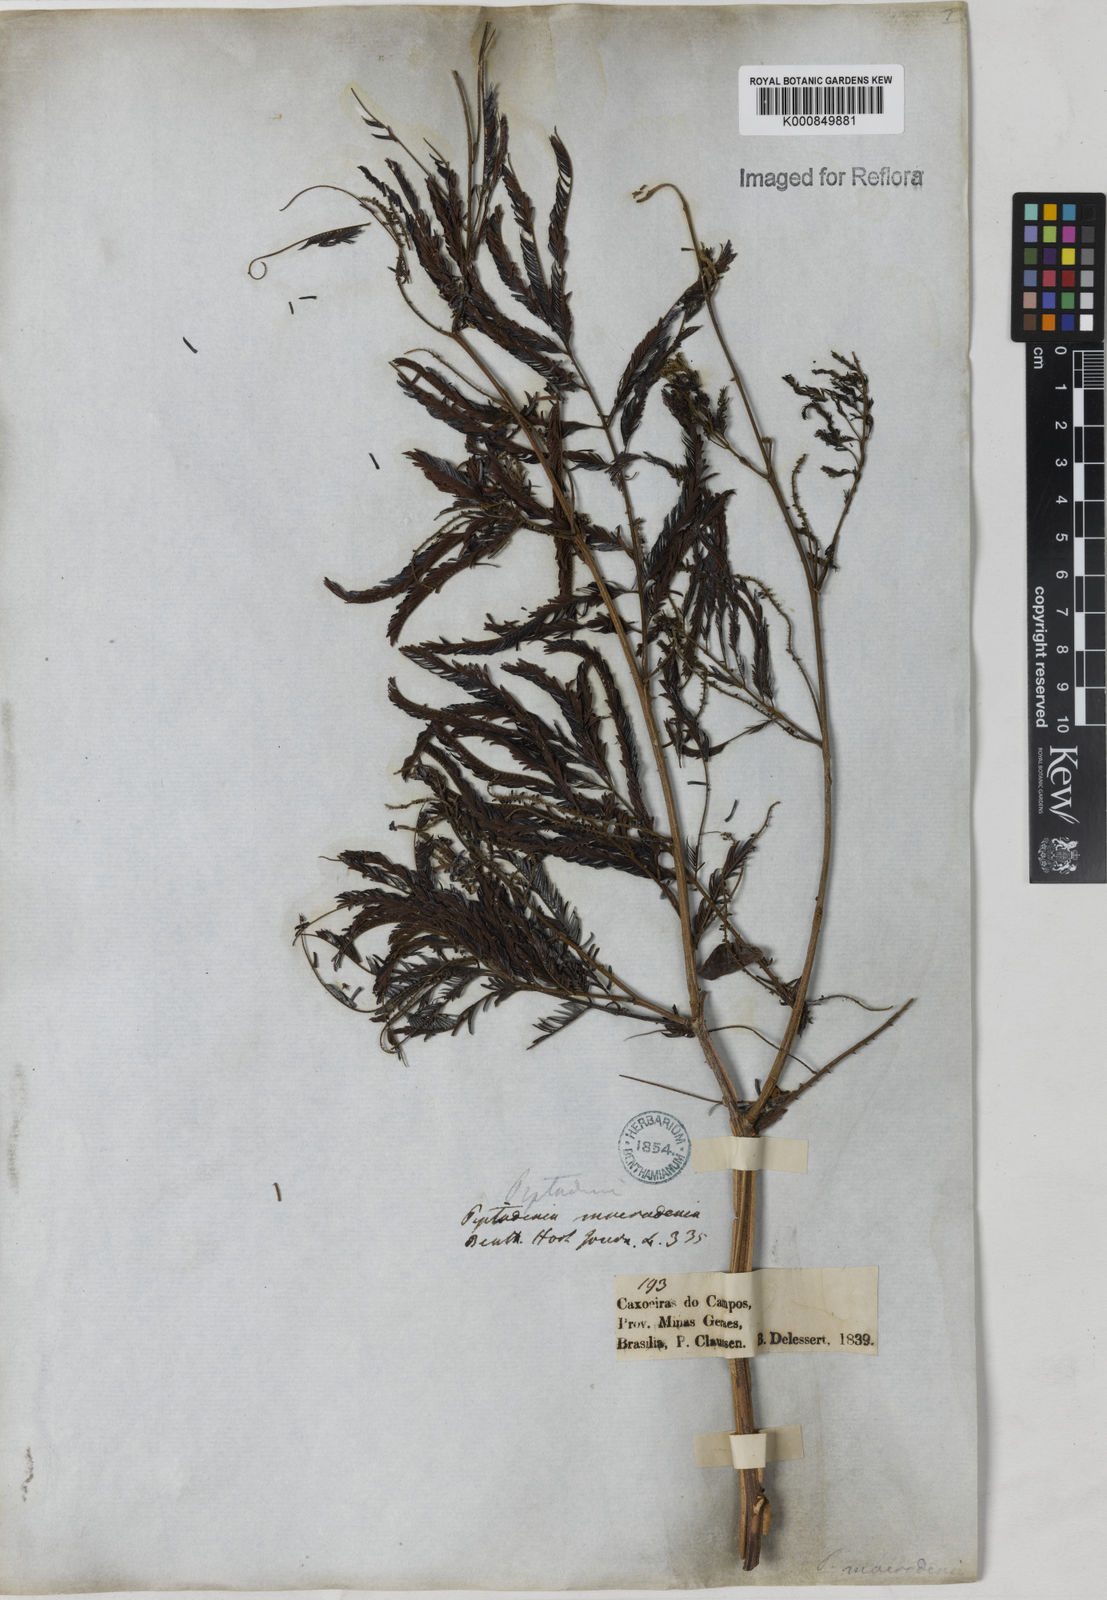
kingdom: Plantae
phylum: Tracheophyta
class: Magnoliopsida
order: Fabales
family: Fabaceae
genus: Piptadenia
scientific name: Piptadenia macradenia
